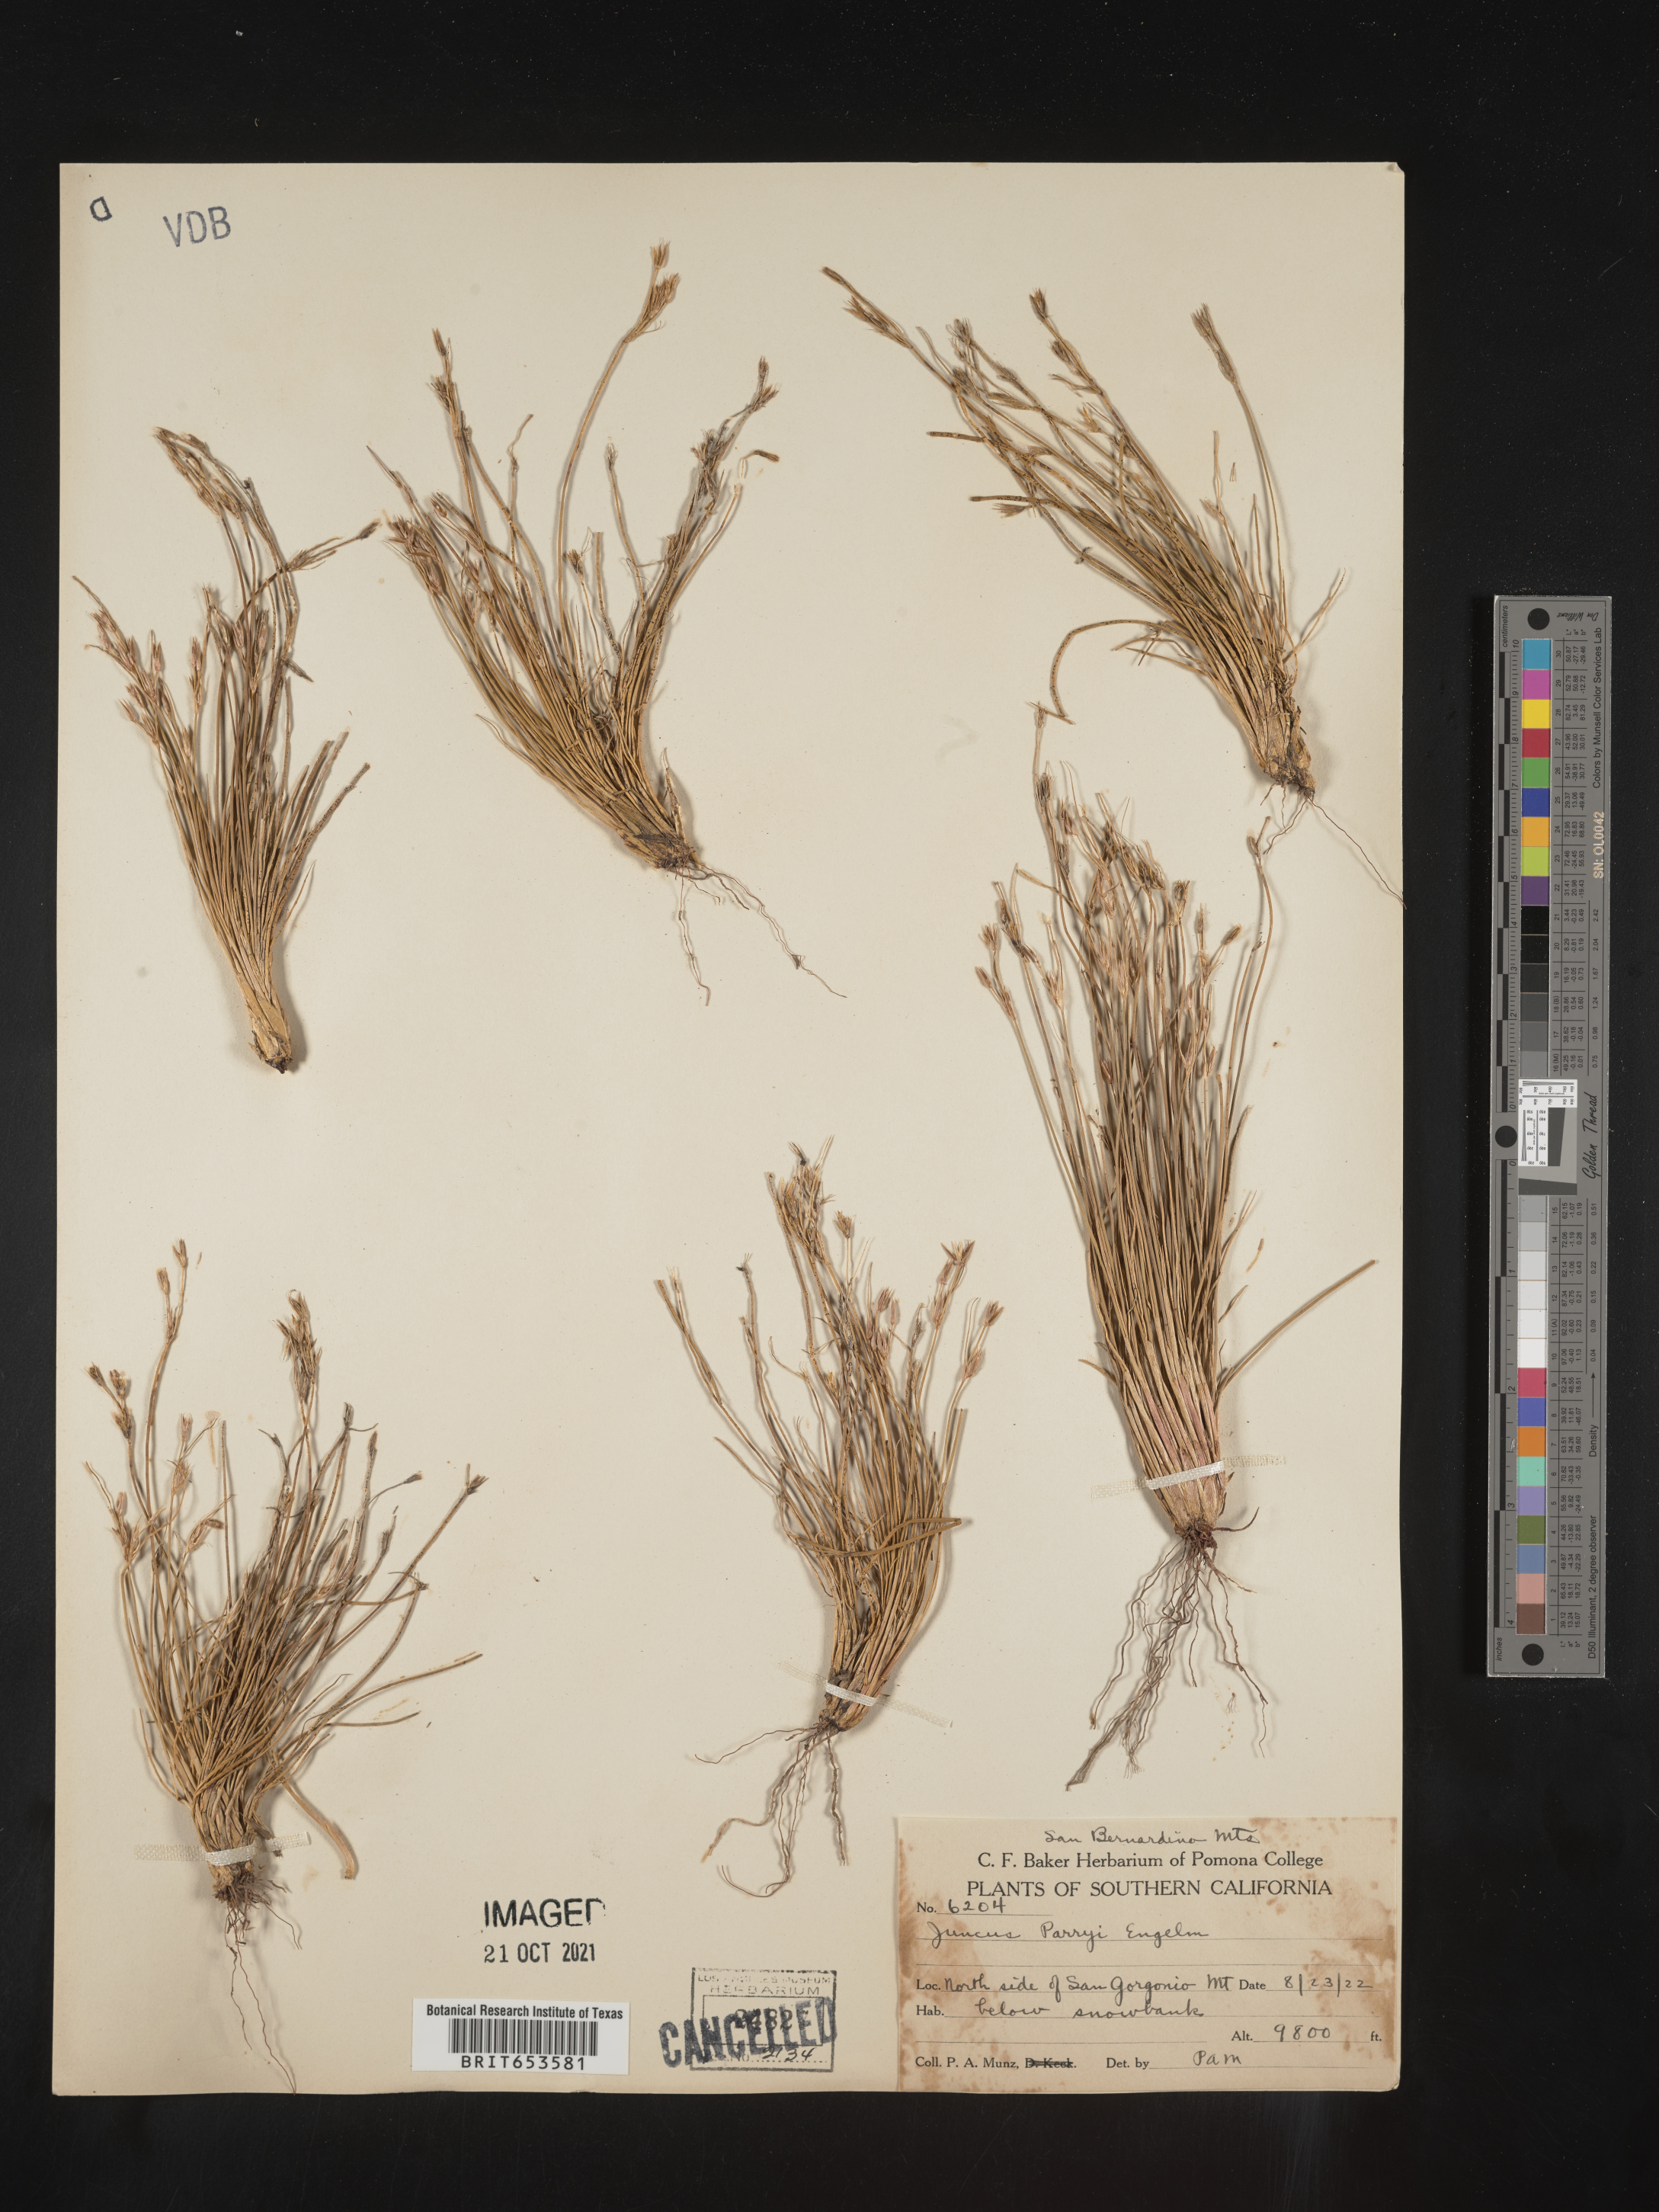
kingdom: Plantae
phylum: Tracheophyta
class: Liliopsida
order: Poales
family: Juncaceae
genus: Juncus
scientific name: Juncus parryi
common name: Parry's rush
